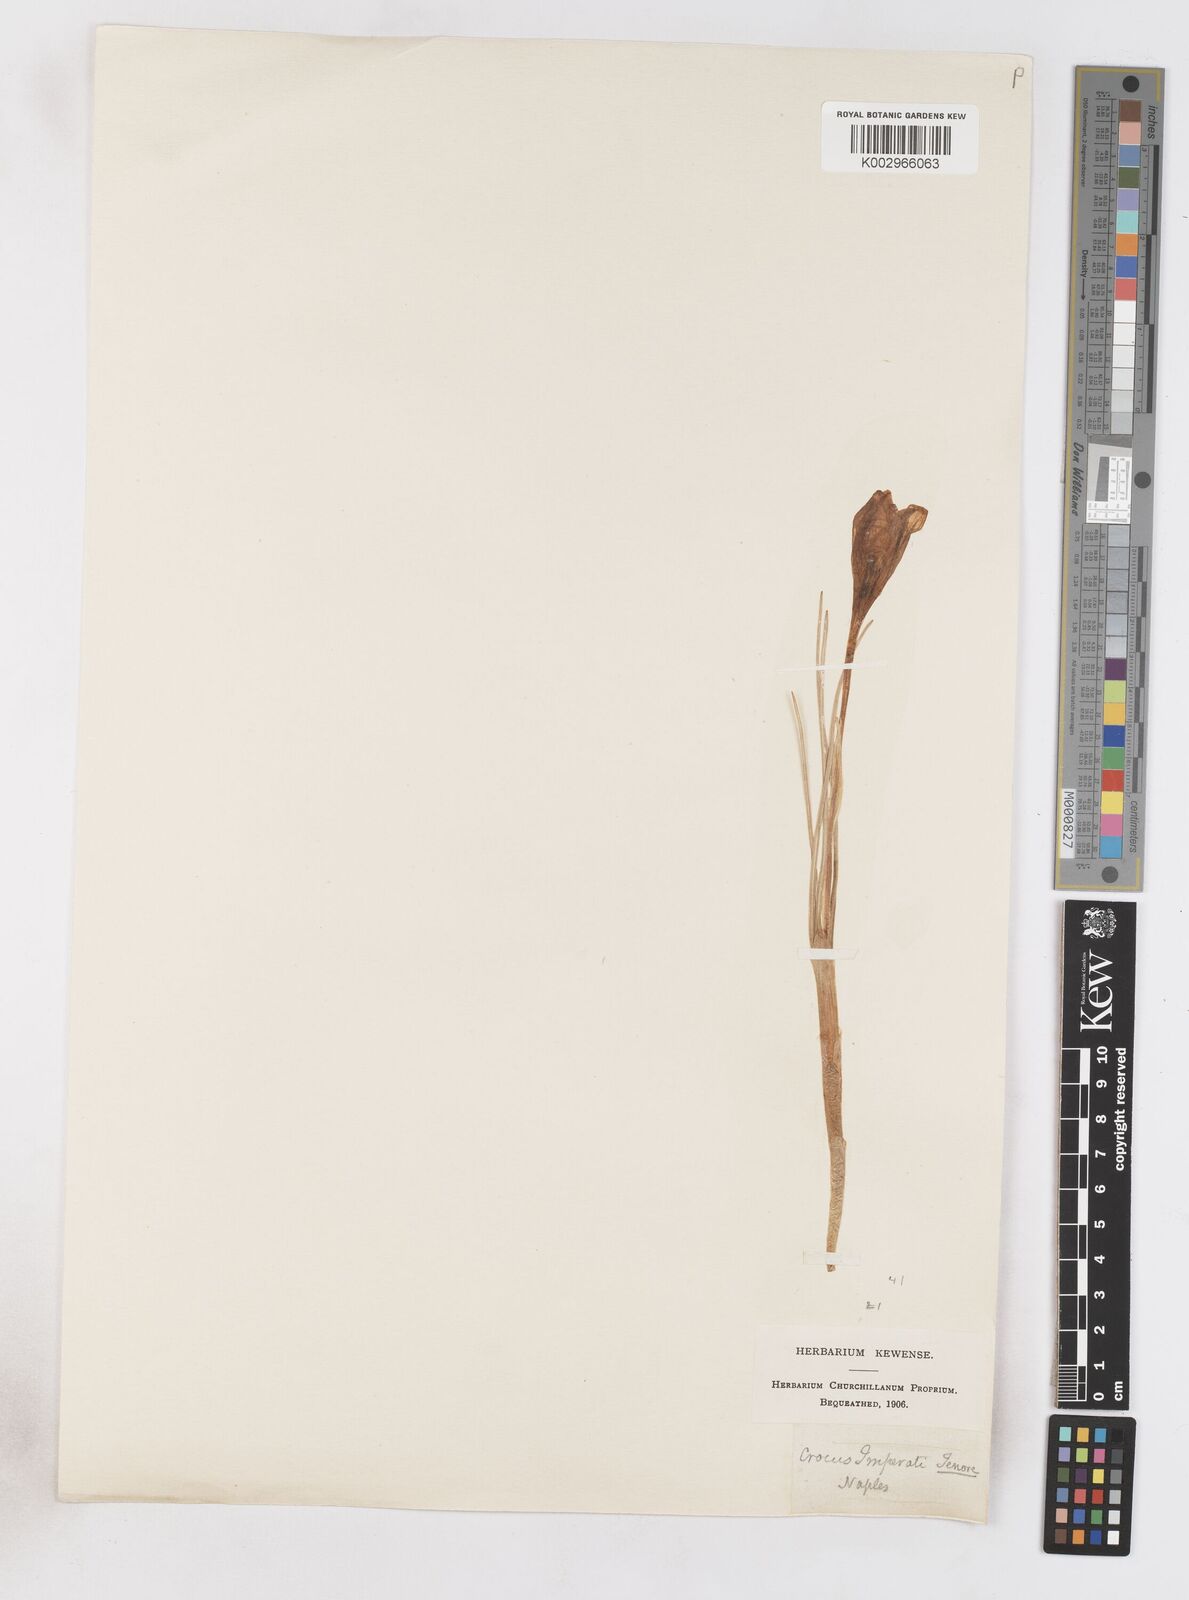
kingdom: Plantae
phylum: Tracheophyta
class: Liliopsida
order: Asparagales
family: Iridaceae
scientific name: Iridaceae
